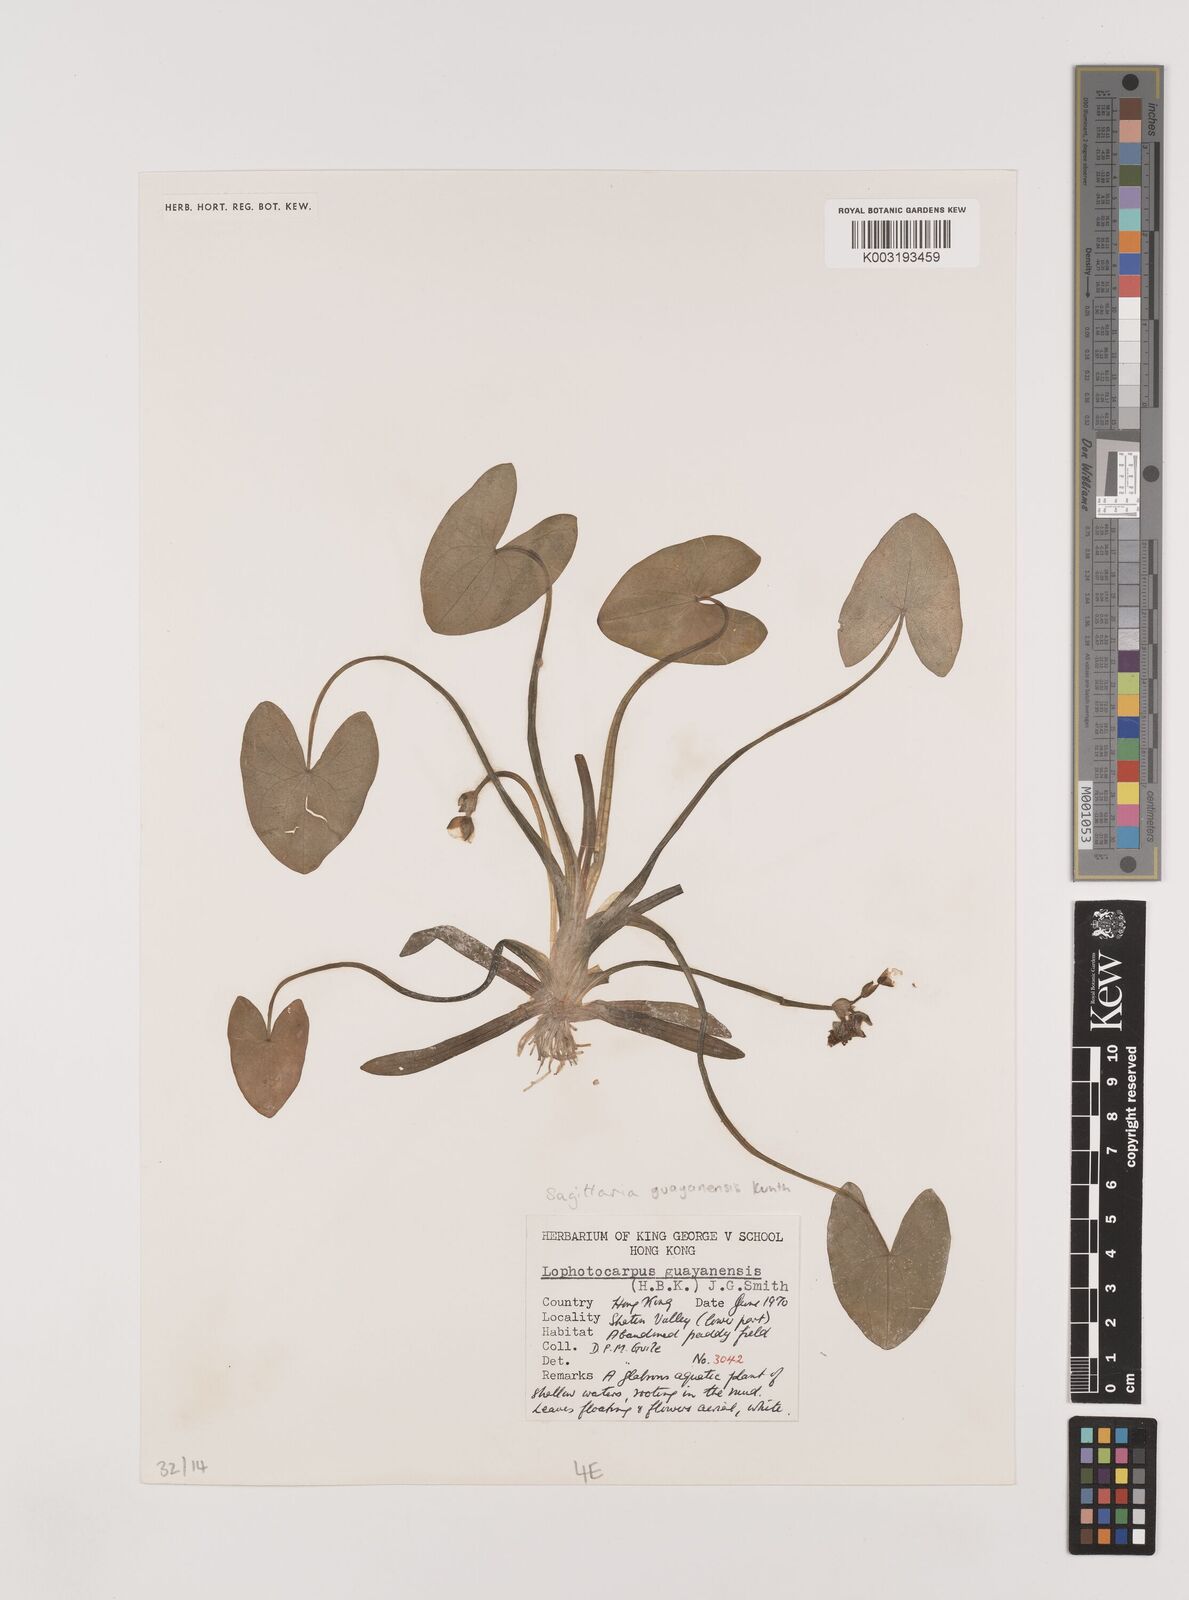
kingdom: Plantae
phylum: Tracheophyta
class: Liliopsida
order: Alismatales
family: Alismataceae
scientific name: Alismataceae
